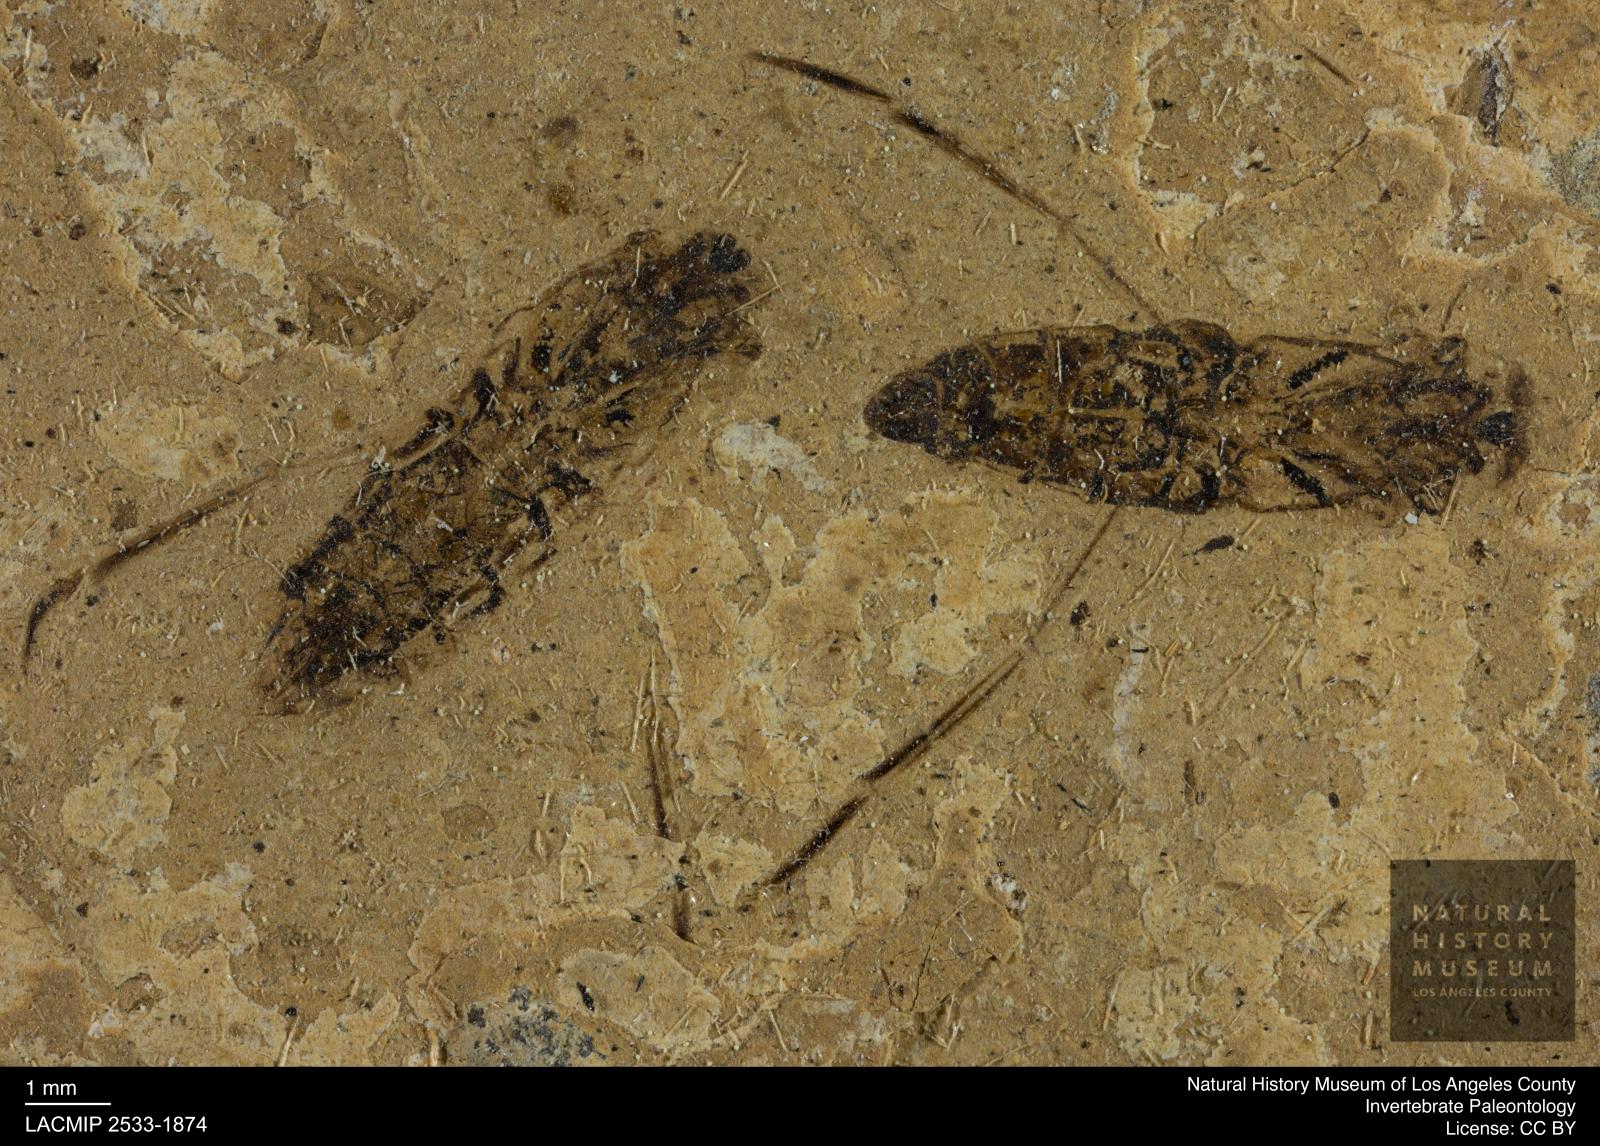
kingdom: Animalia
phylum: Arthropoda
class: Insecta
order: Hemiptera
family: Notonectidae
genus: Anisops
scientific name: Anisops Notonecta deichmuelleri
